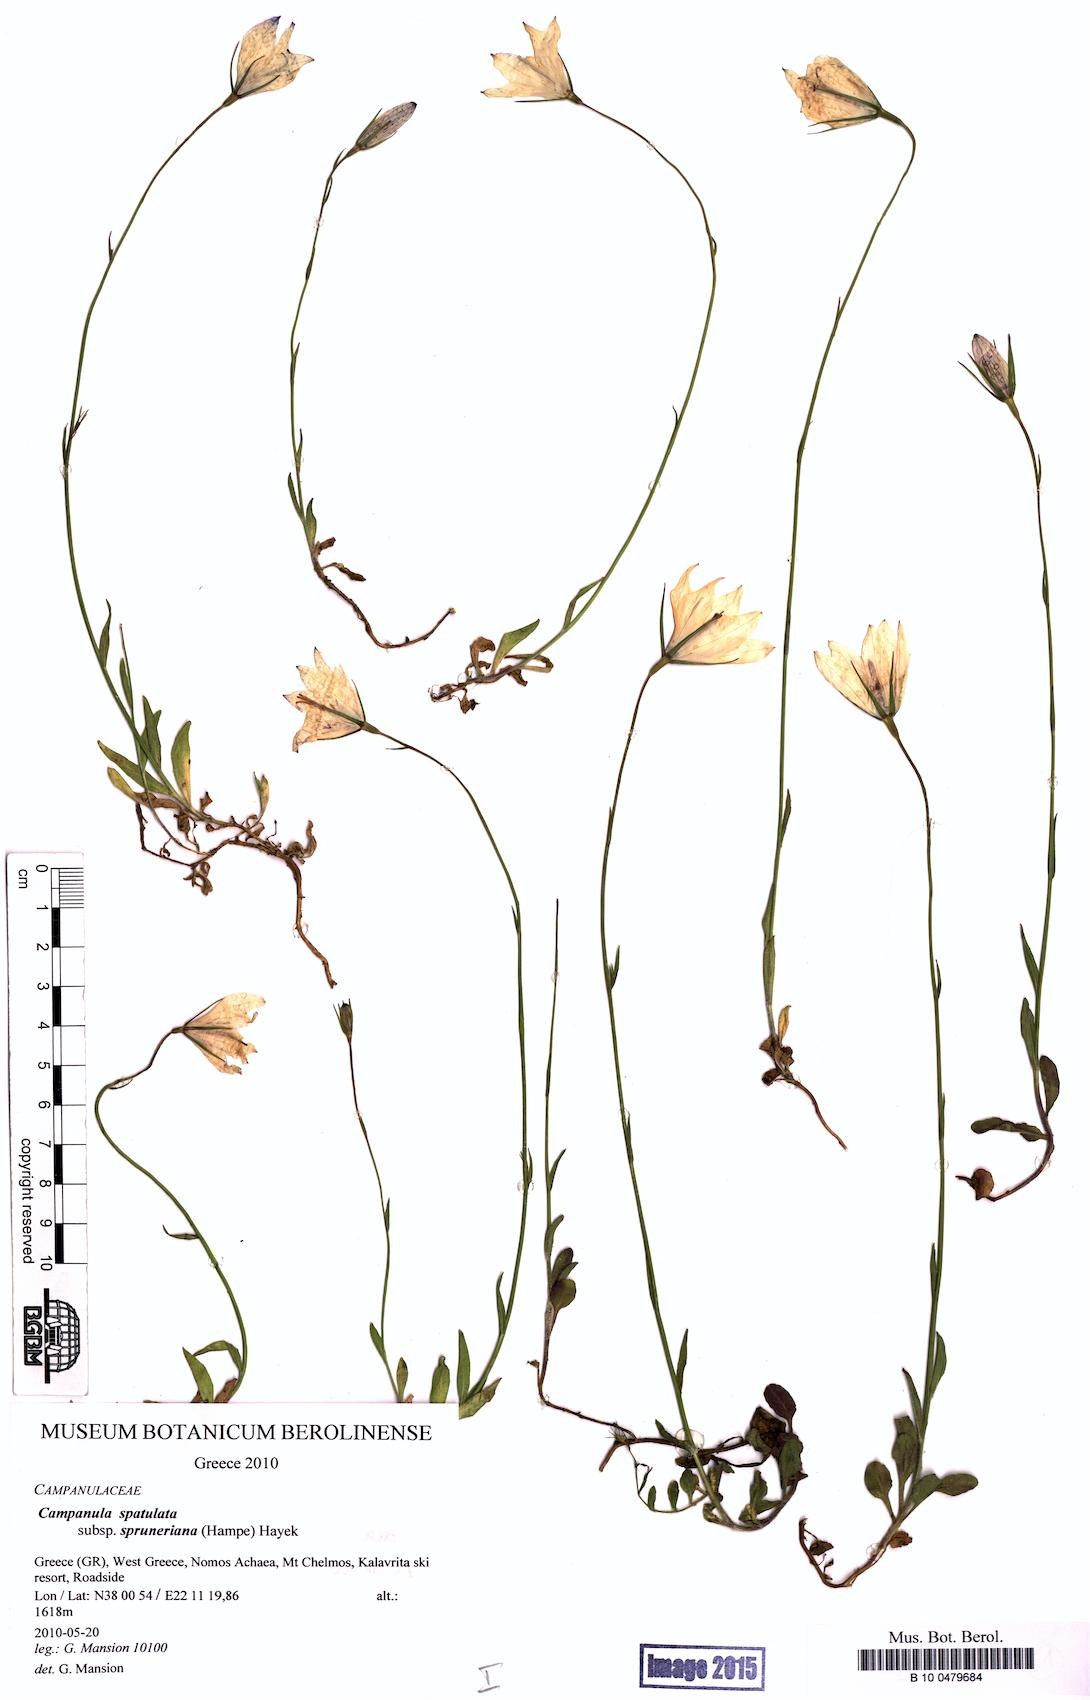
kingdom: Plantae
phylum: Tracheophyta
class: Magnoliopsida
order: Asterales
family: Campanulaceae
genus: Campanula
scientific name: Campanula spatulata
